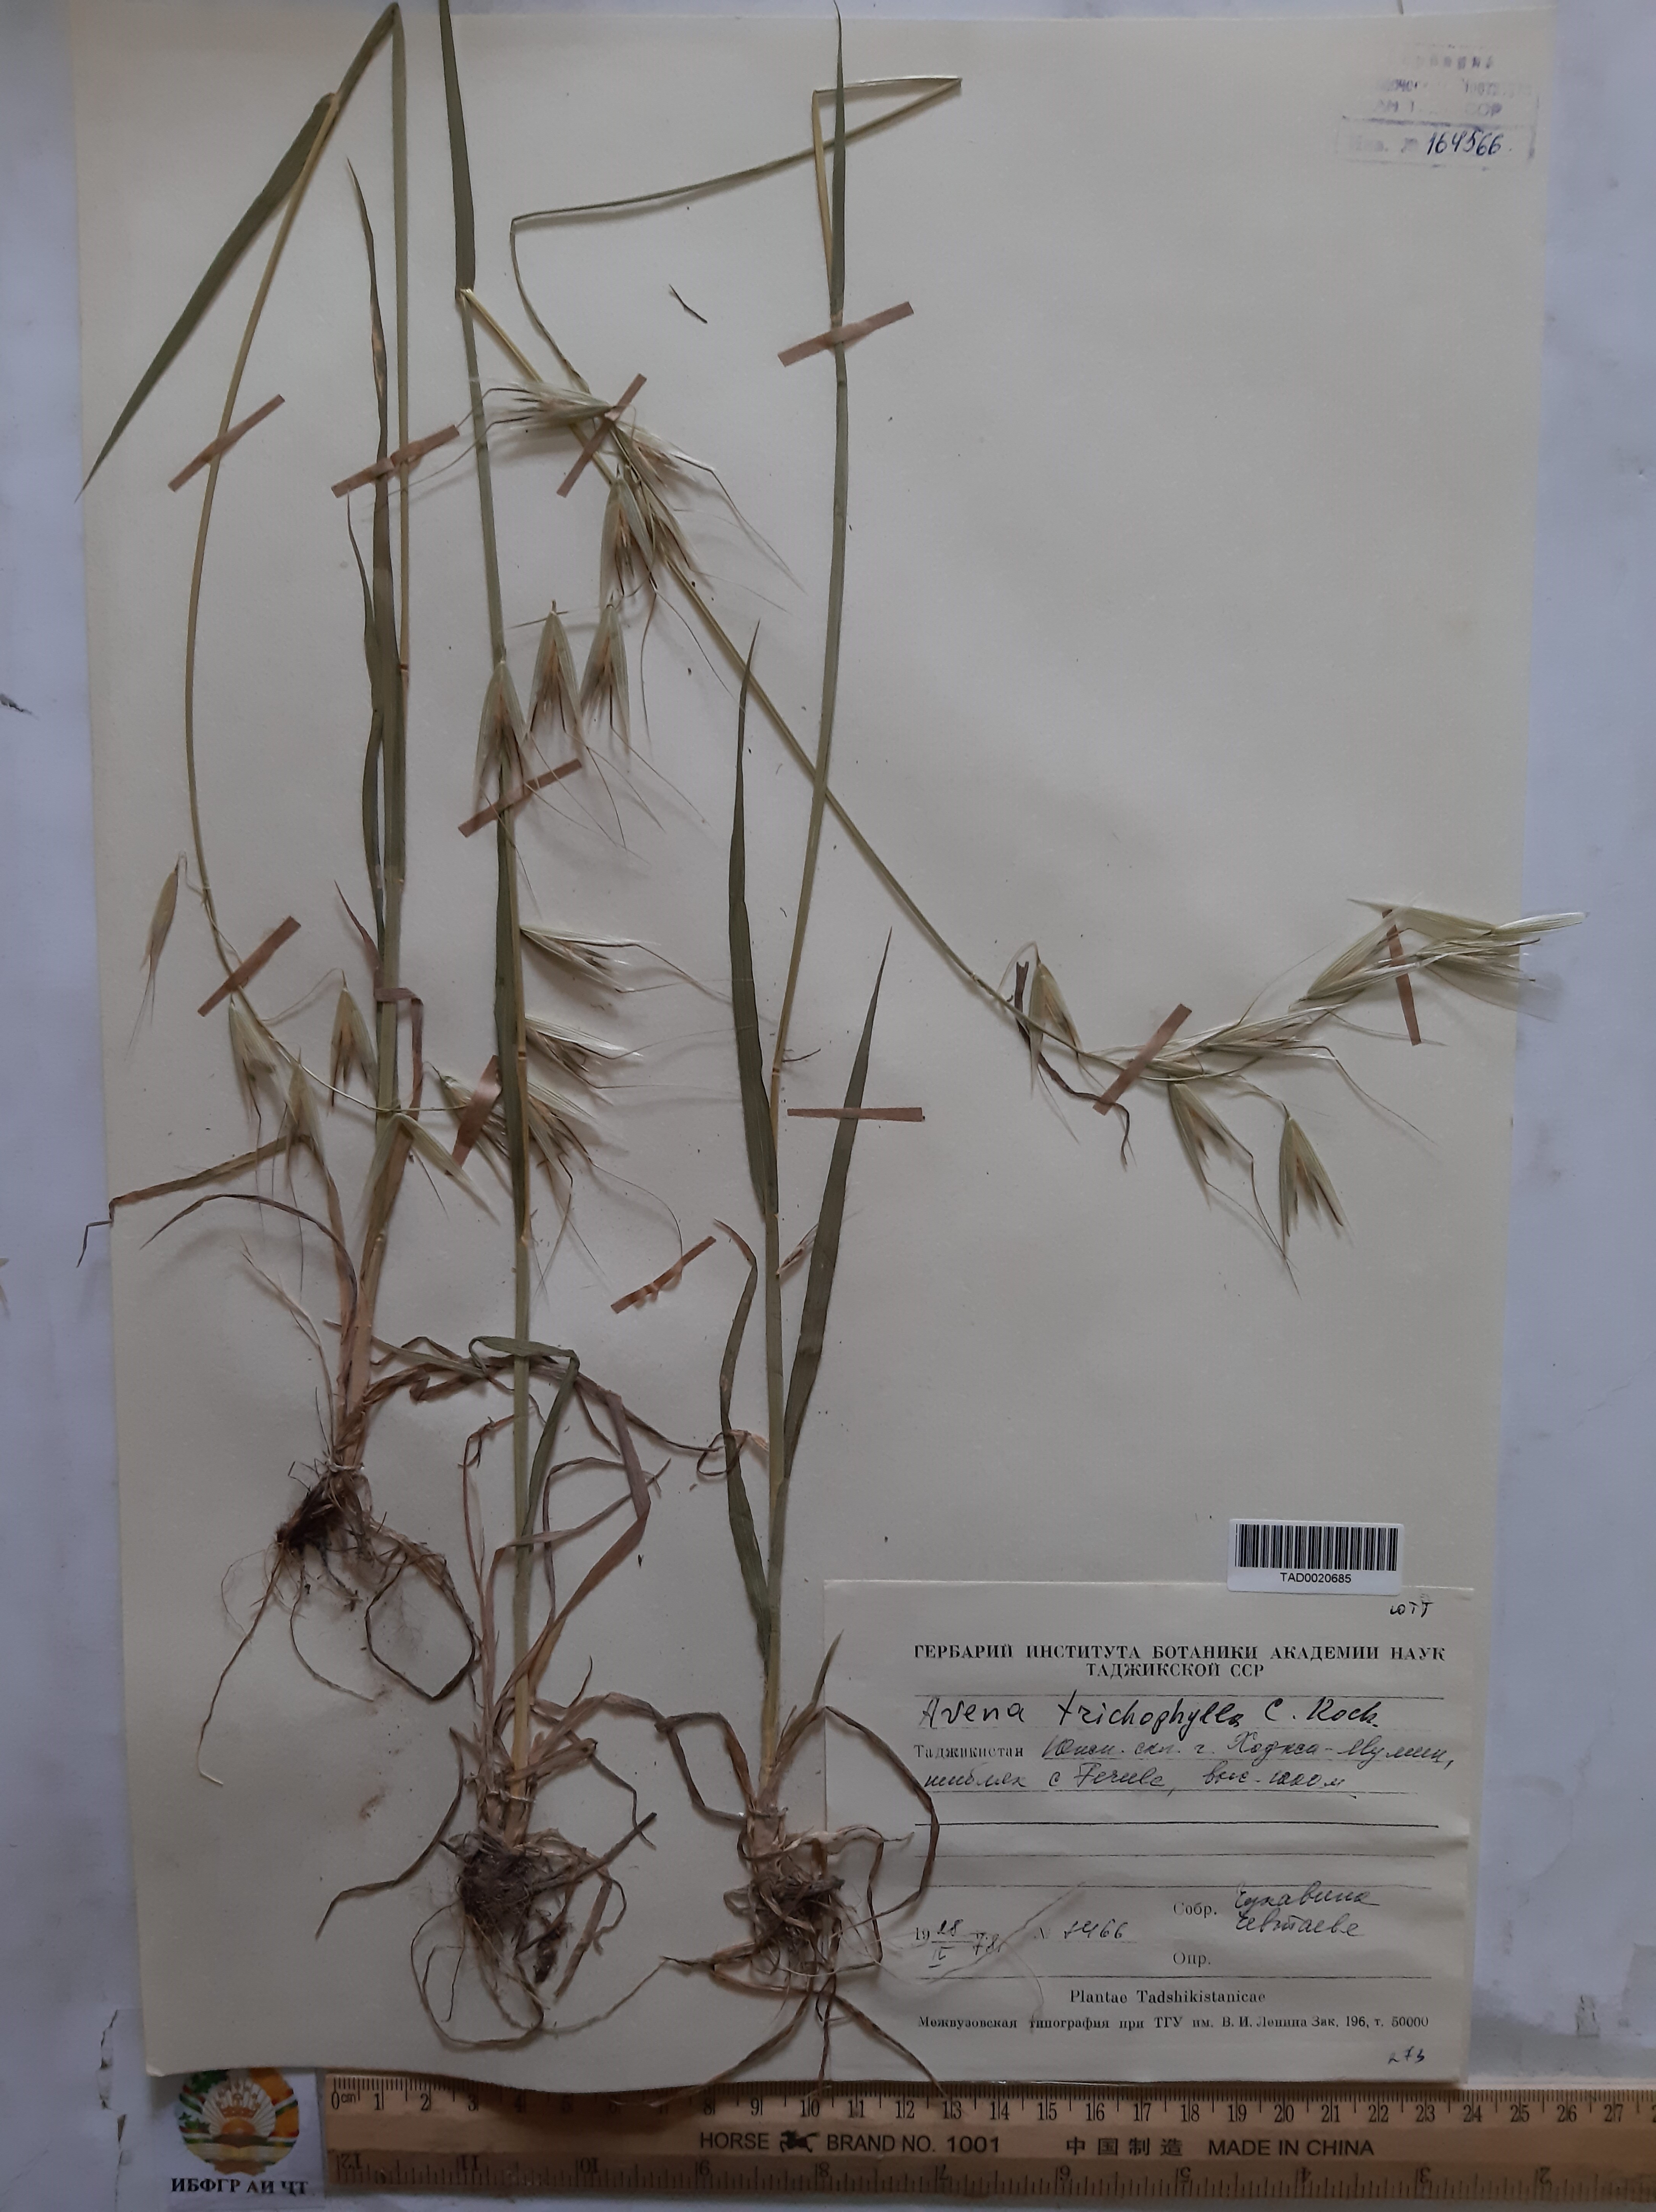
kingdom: Plantae
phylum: Tracheophyta
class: Liliopsida
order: Poales
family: Poaceae
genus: Avena
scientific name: Avena sterilis
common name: Animated oat
